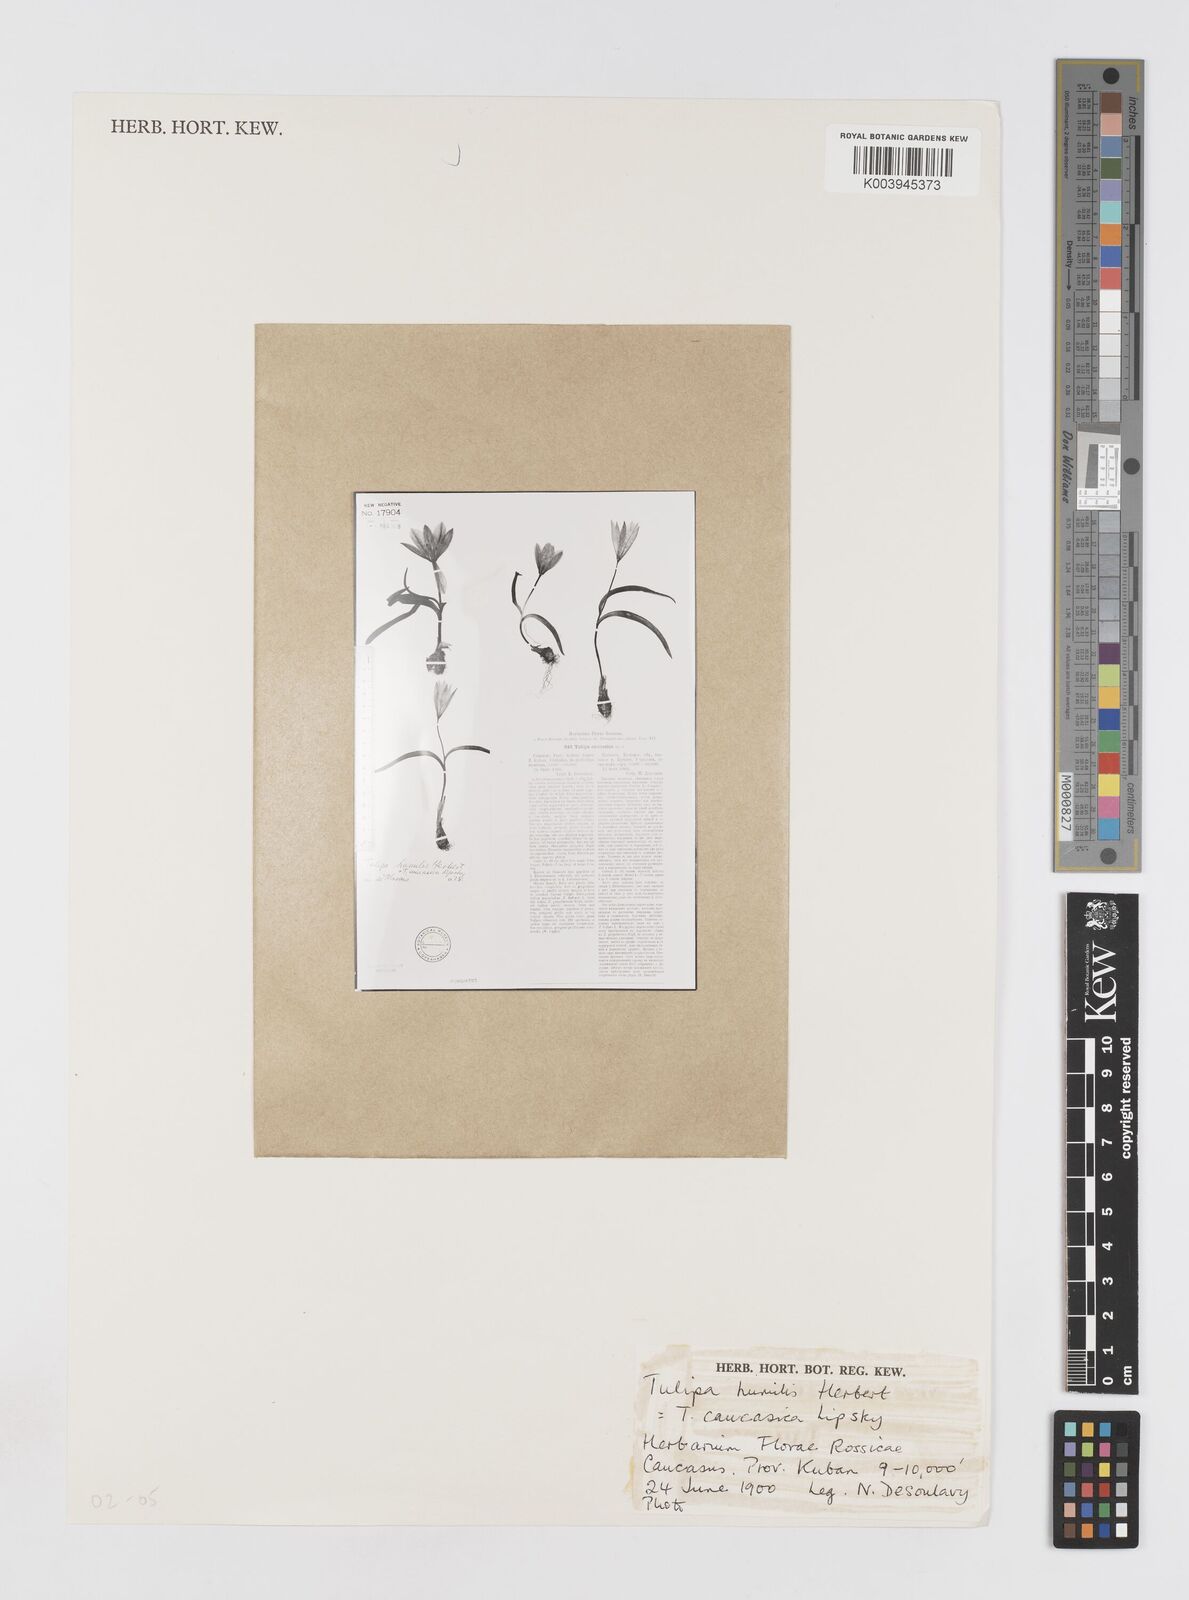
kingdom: Plantae
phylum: Tracheophyta
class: Liliopsida
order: Liliales
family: Liliaceae
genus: Tulipa
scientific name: Tulipa humilis
